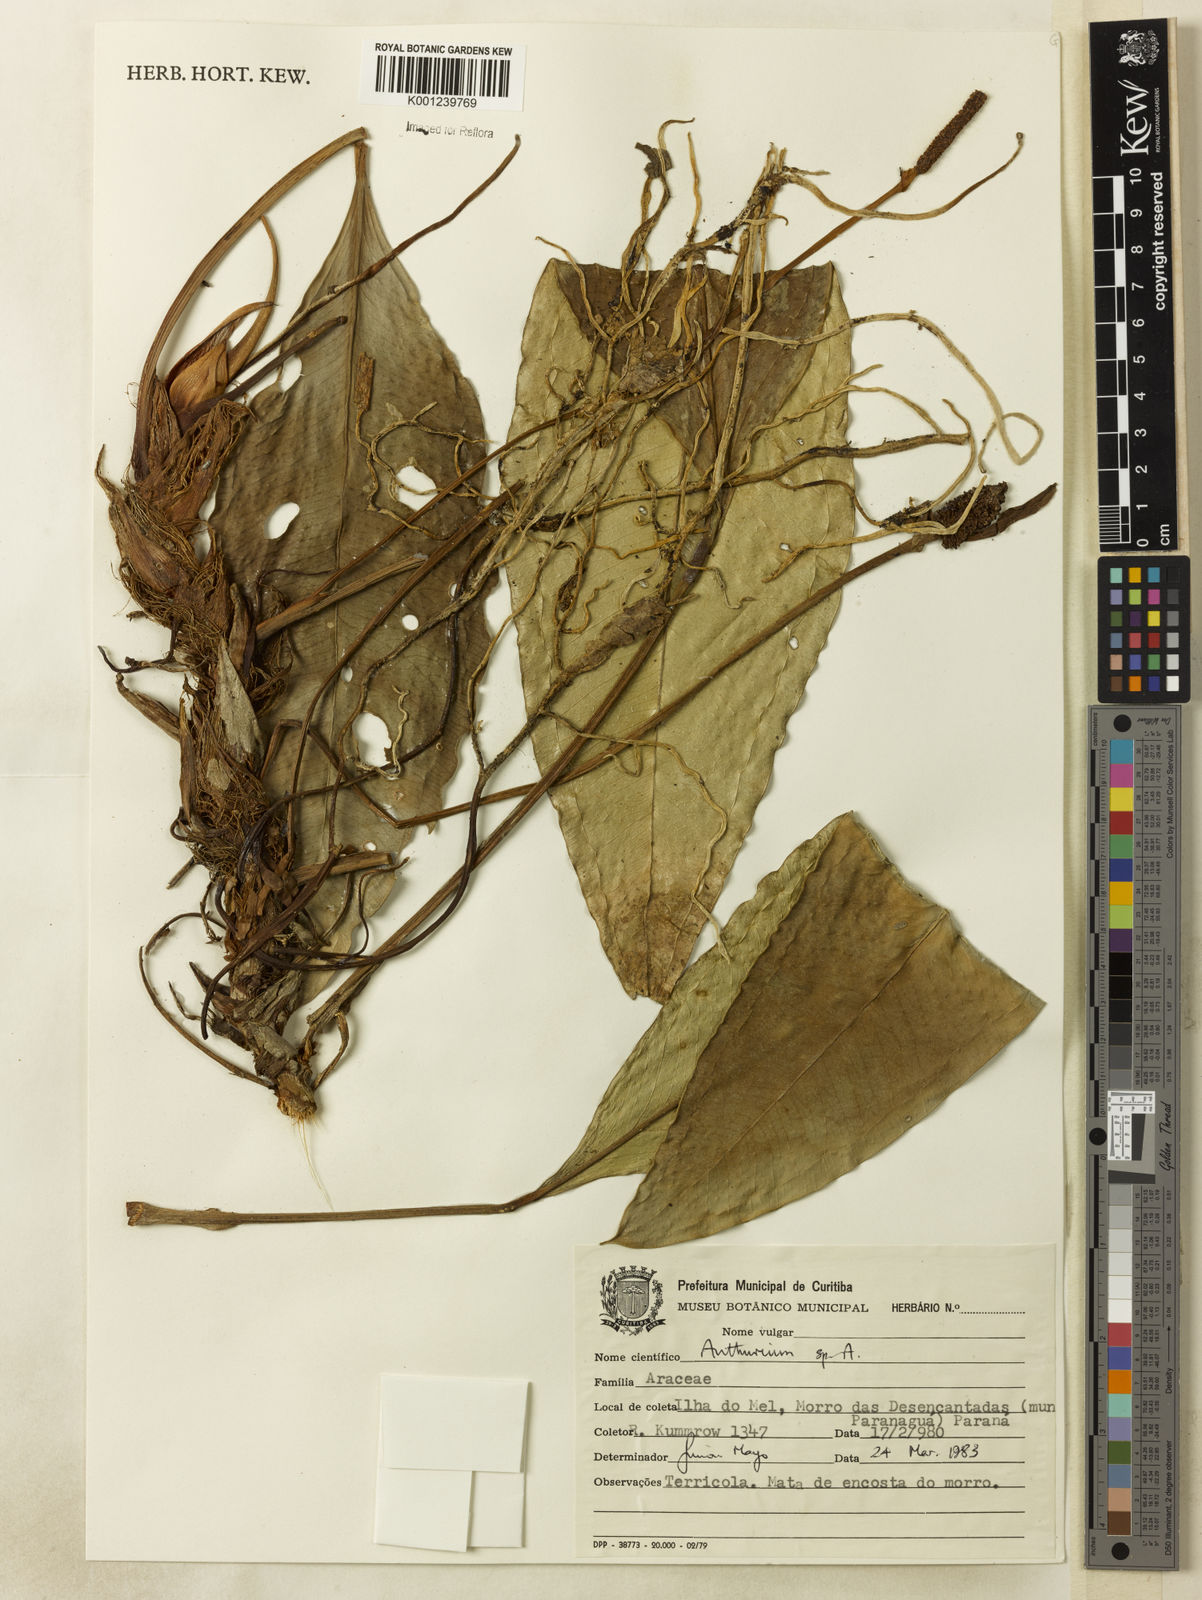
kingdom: Plantae
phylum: Tracheophyta
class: Liliopsida
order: Alismatales
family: Araceae
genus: Anthurium
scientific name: Anthurium
